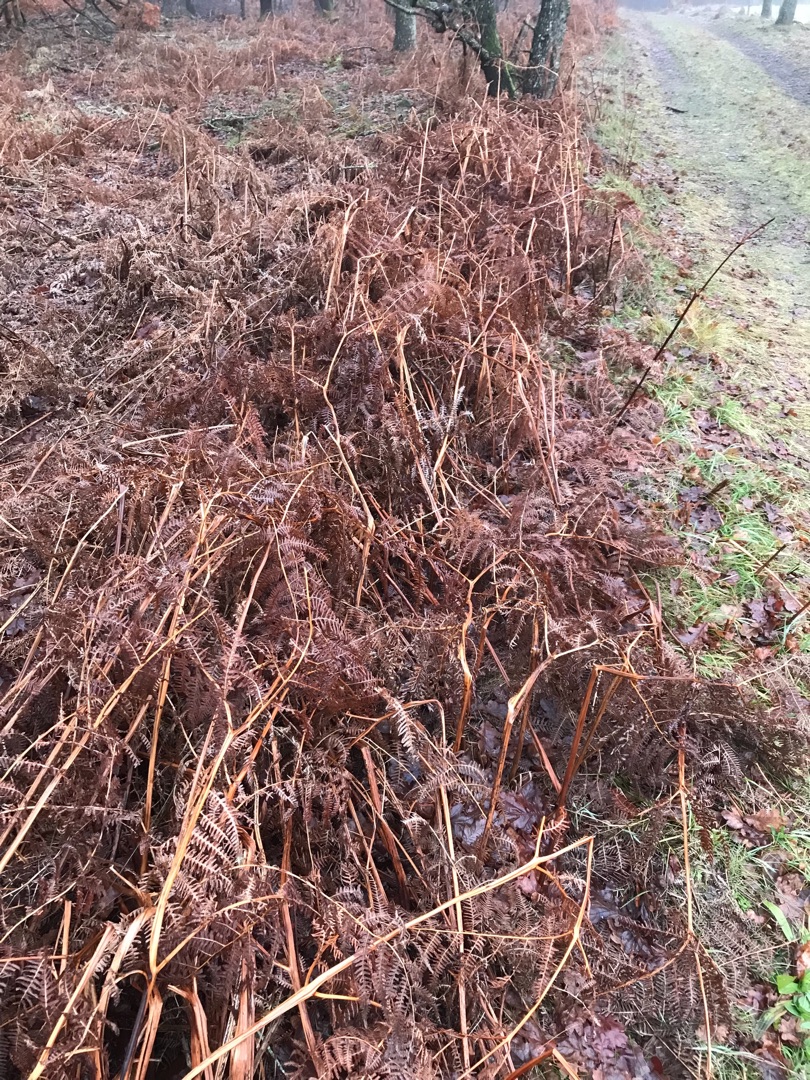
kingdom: Plantae
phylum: Tracheophyta
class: Polypodiopsida
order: Polypodiales
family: Dennstaedtiaceae
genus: Pteridium
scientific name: Pteridium aquilinum
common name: Ørnebregne
